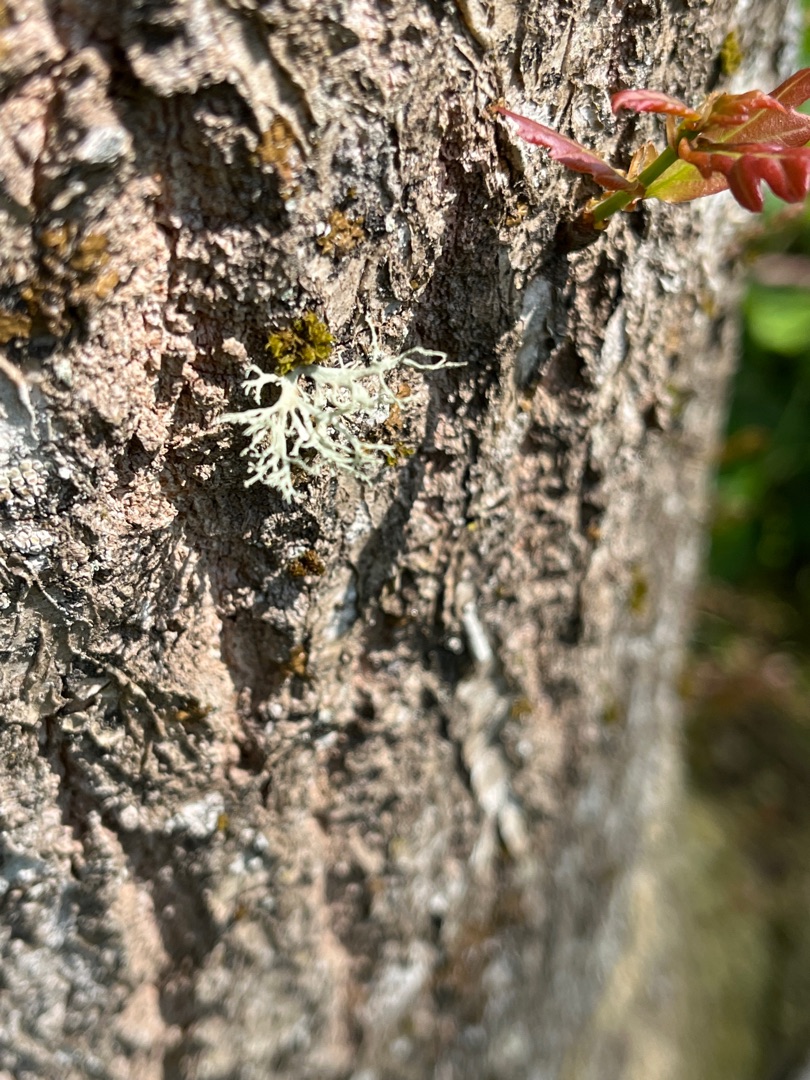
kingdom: Fungi
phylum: Ascomycota
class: Lecanoromycetes
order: Lecanorales
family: Ramalinaceae
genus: Ramalina
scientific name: Ramalina farinacea
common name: Melet grenlav
